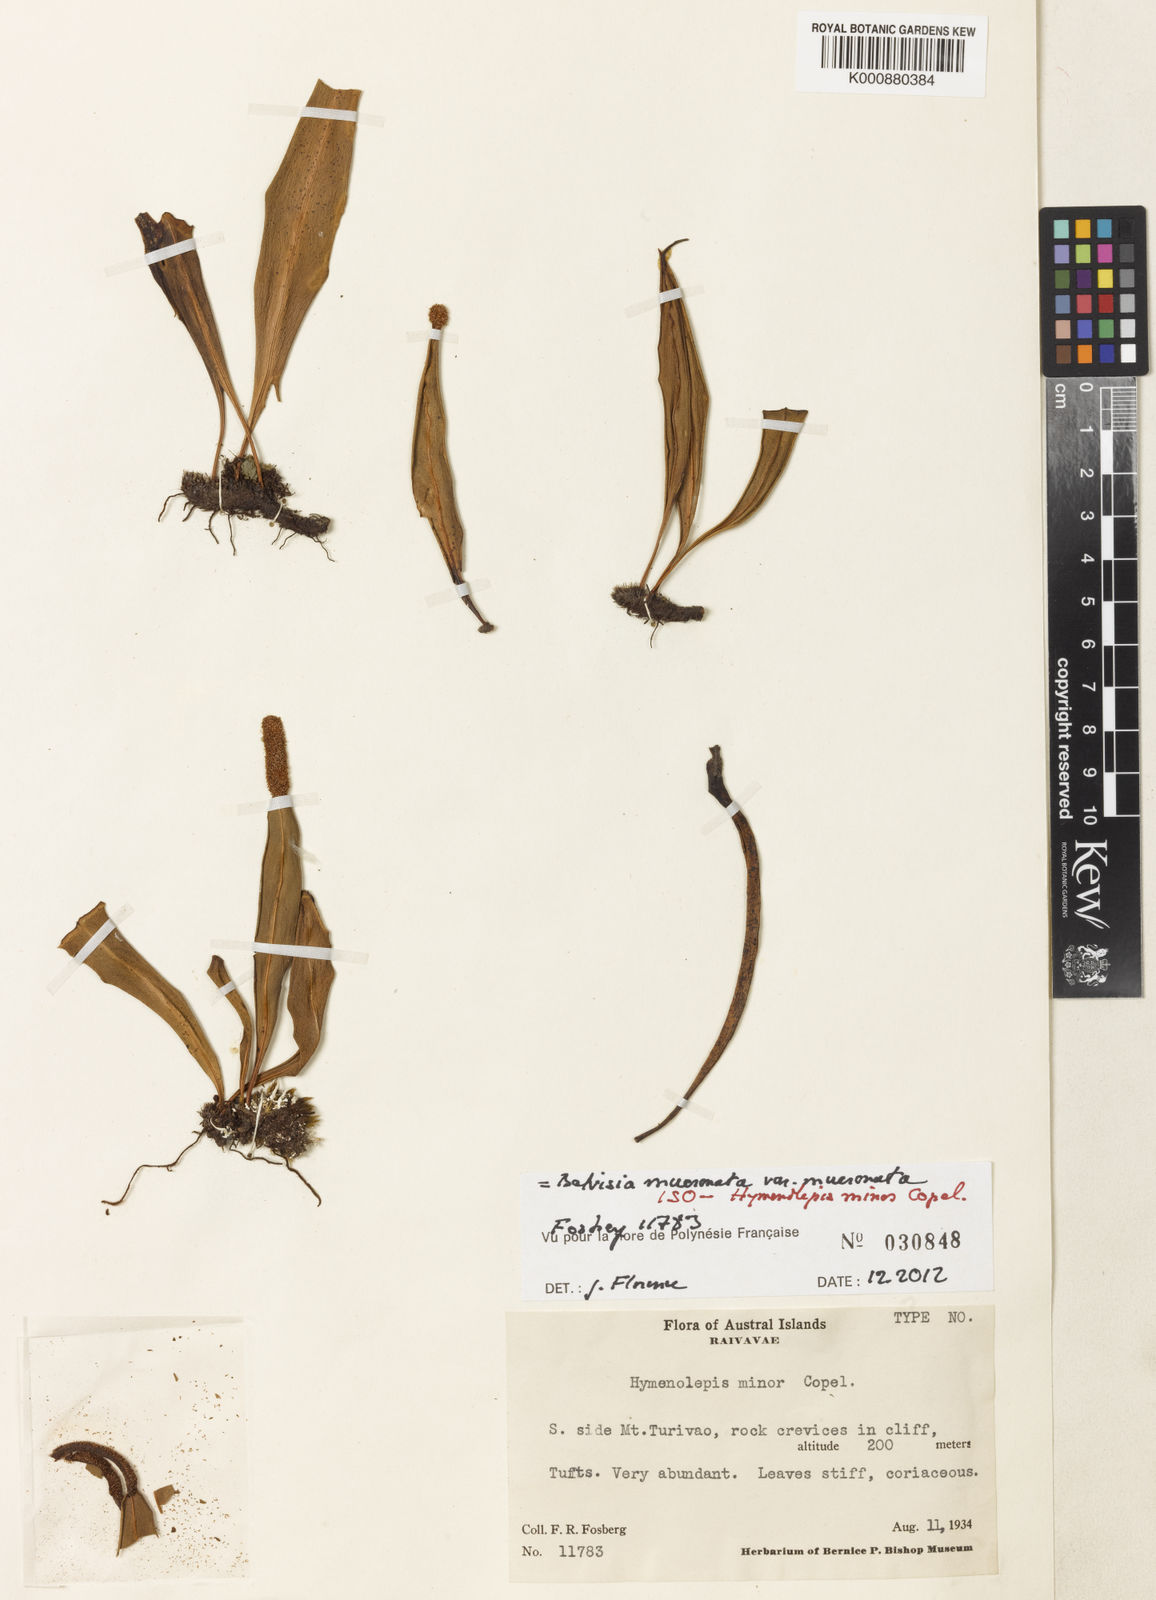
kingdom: Plantae
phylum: Tracheophyta
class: Magnoliopsida
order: Ericales
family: Lecythidaceae
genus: Napoleonaea
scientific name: Napoleonaea
